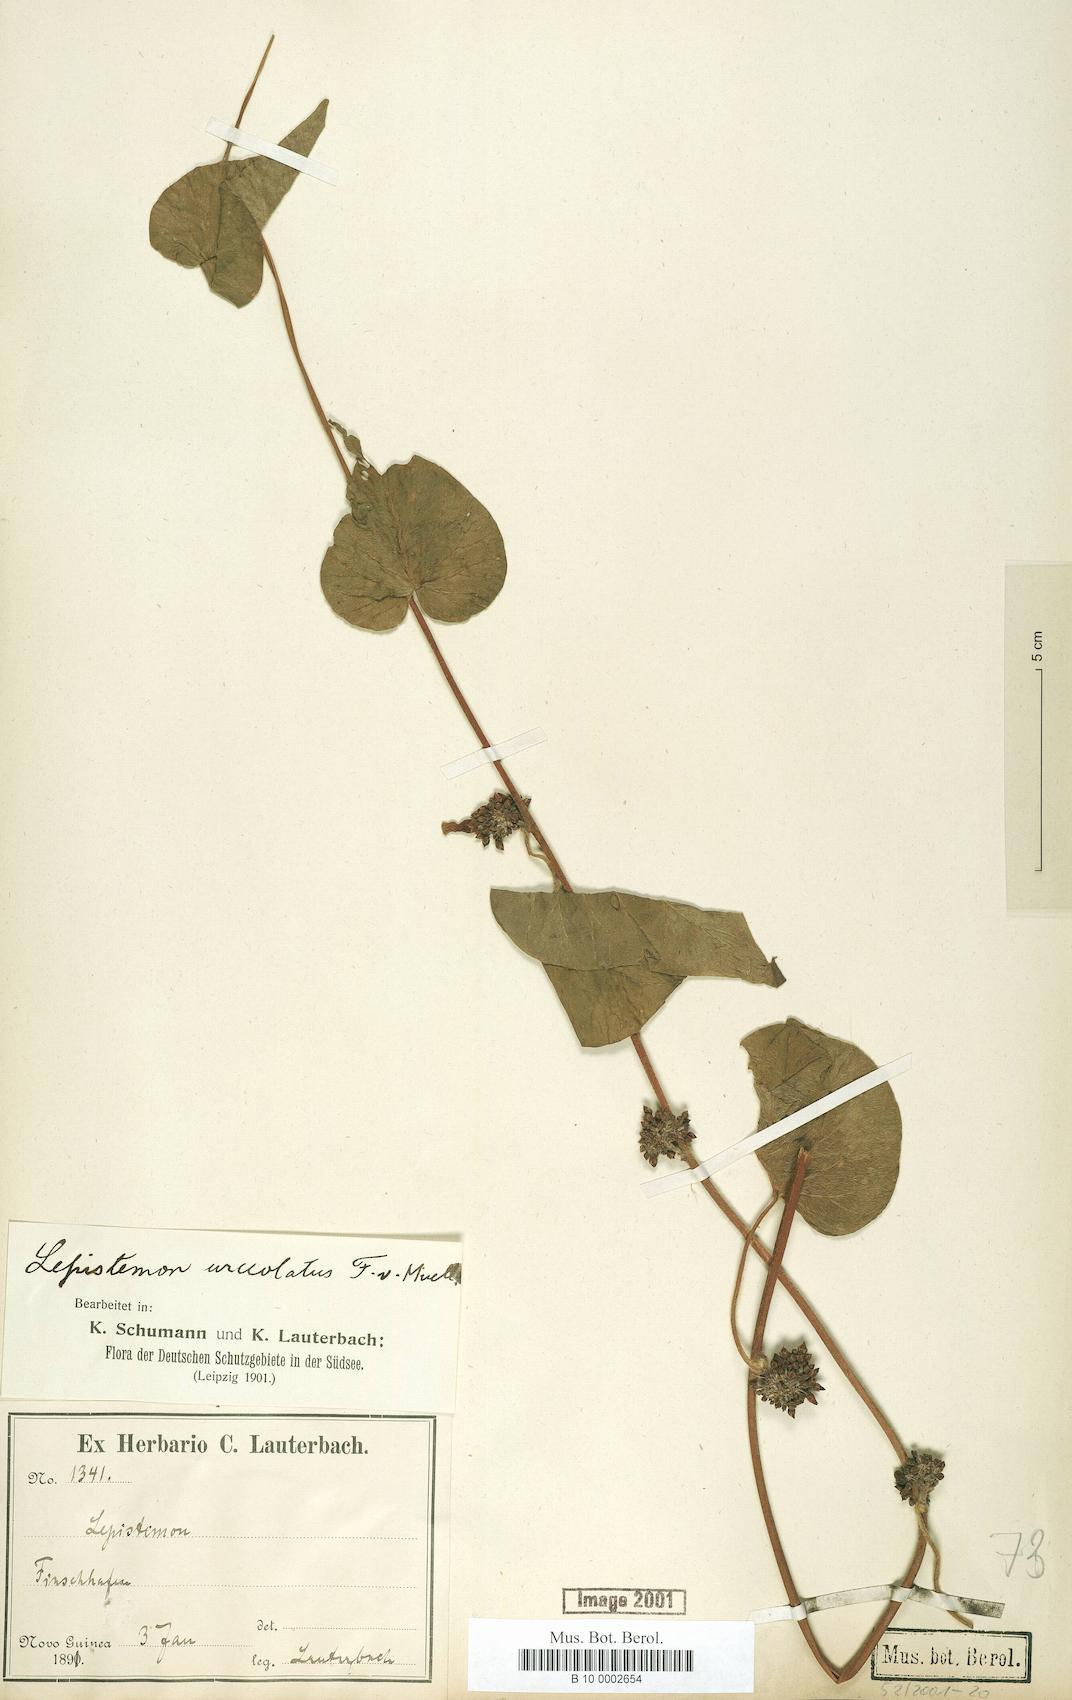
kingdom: Plantae
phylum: Tracheophyta
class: Magnoliopsida
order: Solanales
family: Convolvulaceae
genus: Lepistemon
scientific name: Lepistemon urceolatus
